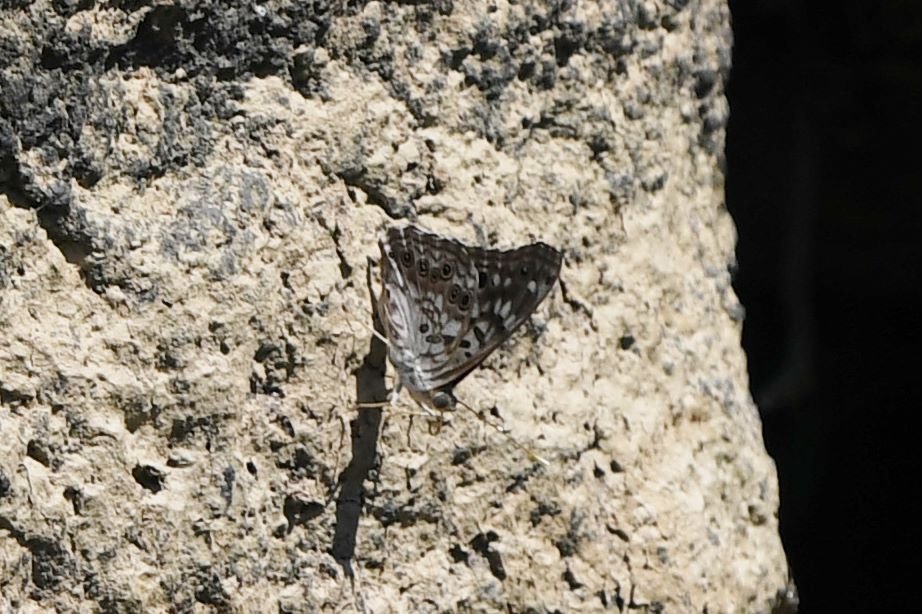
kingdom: Animalia
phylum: Arthropoda
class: Insecta
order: Lepidoptera
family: Nymphalidae
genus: Asterocampa
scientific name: Asterocampa celtis
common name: Hackberry Emperor
